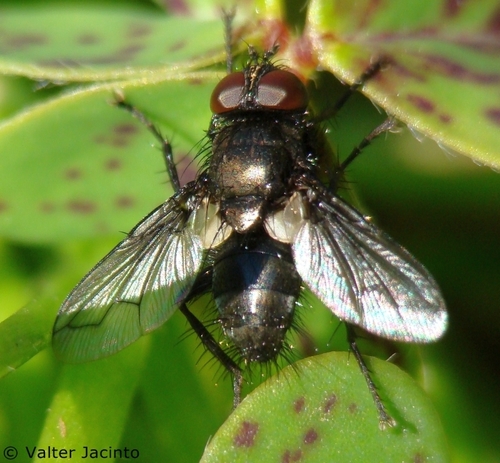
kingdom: Animalia
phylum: Arthropoda
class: Insecta
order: Diptera
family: Tachinidae
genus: Kirbya
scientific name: Kirbya moerens
